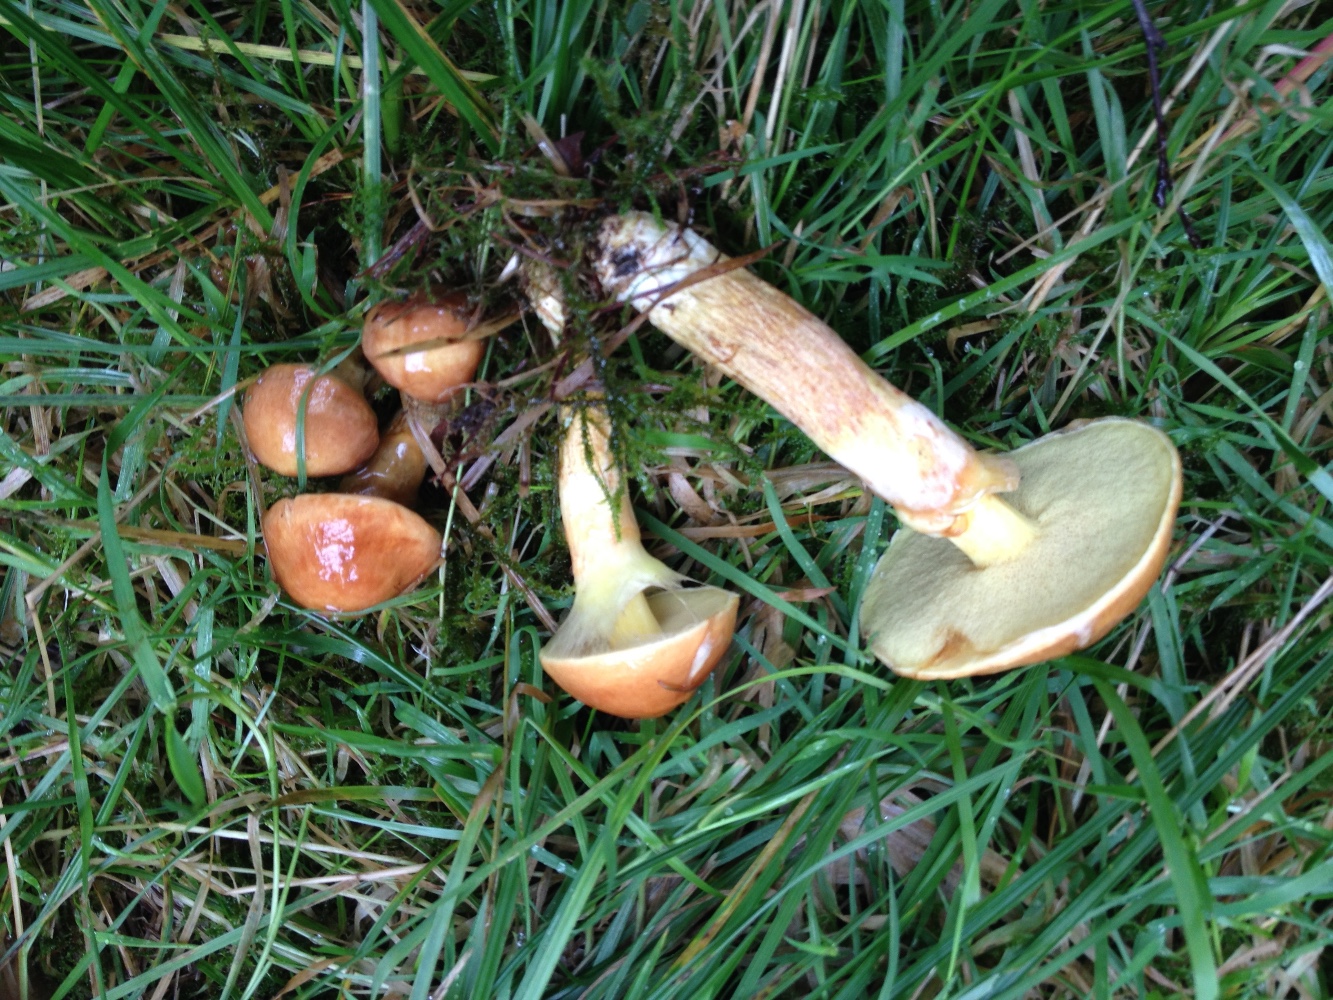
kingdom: Fungi
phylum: Basidiomycota
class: Agaricomycetes
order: Boletales
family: Suillaceae
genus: Suillus
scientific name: Suillus grevillei
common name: lærke-slimrørhat
